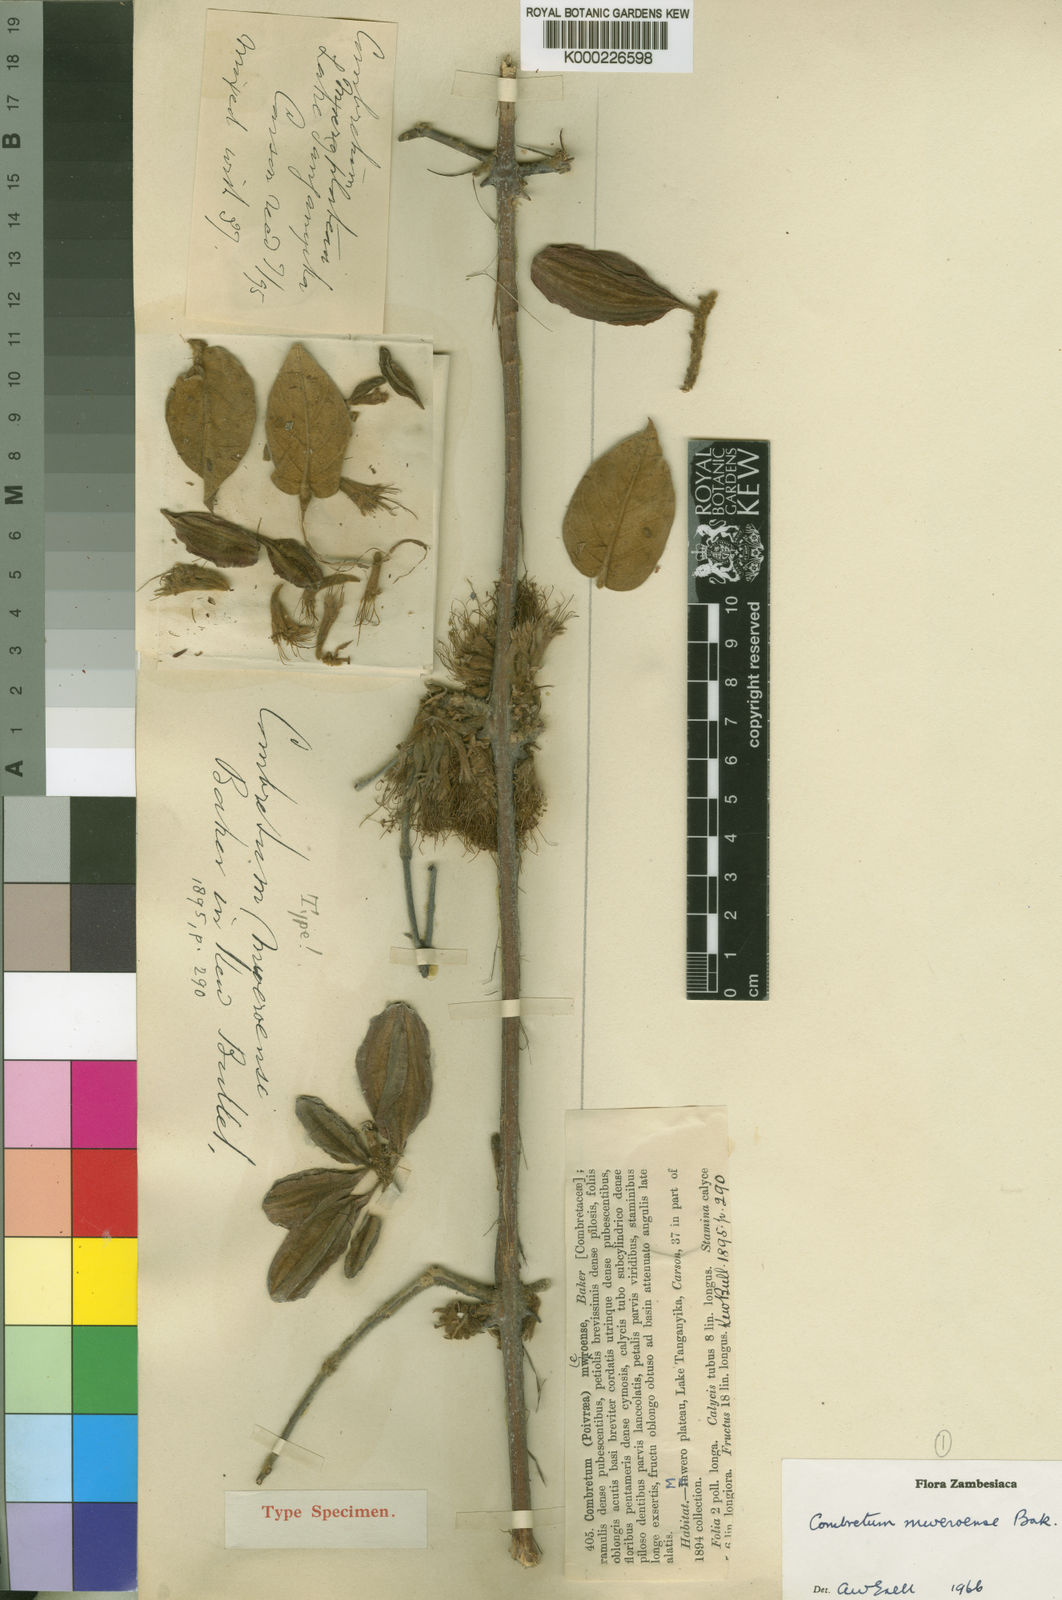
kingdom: Plantae
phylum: Tracheophyta
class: Magnoliopsida
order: Myrtales
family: Combretaceae
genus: Combretum
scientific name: Combretum mweroense
